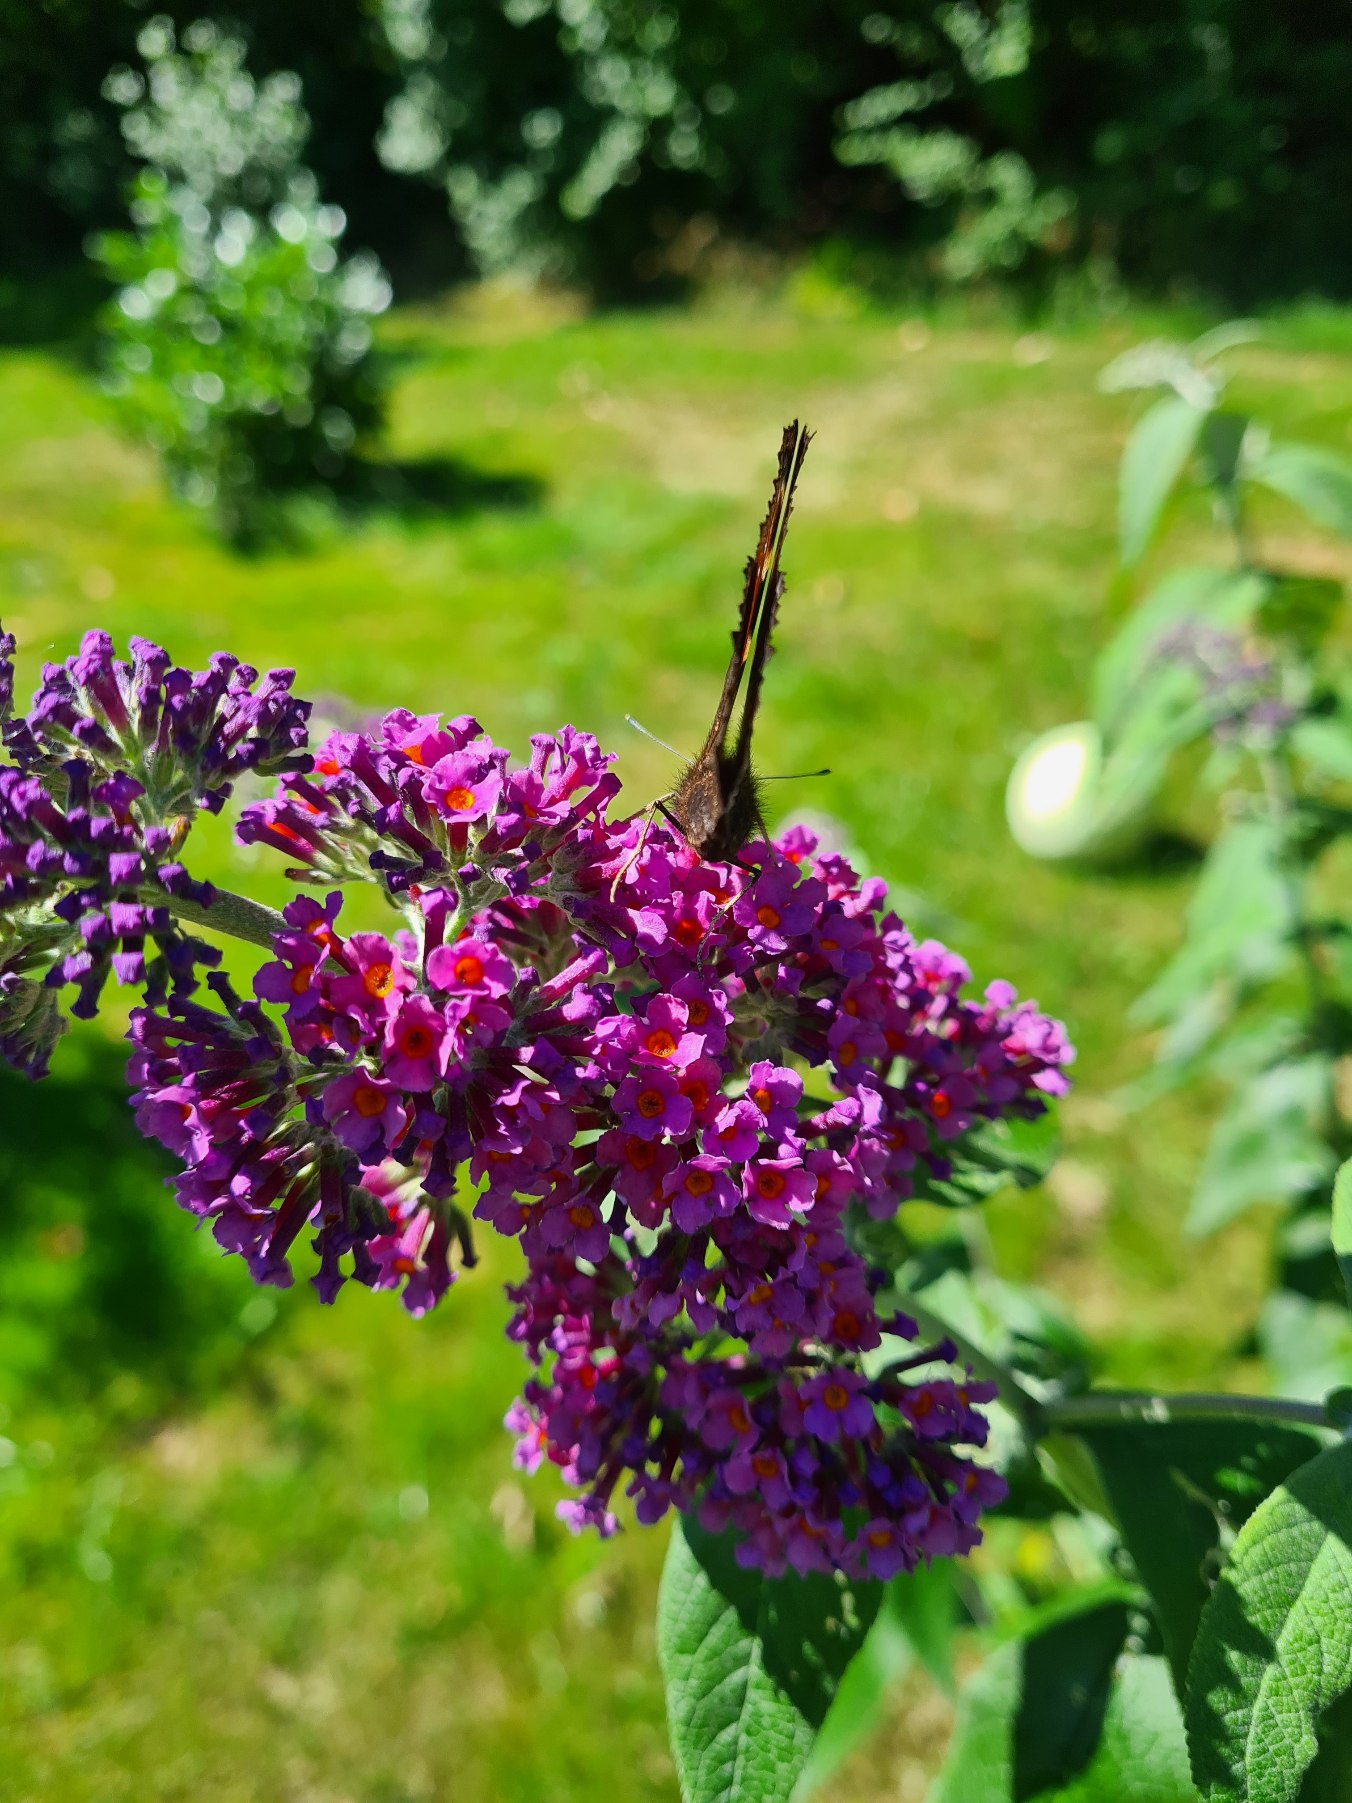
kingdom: Animalia
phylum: Arthropoda
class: Insecta
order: Lepidoptera
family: Nymphalidae
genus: Aglais
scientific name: Aglais io
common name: Dagpåfugleøje
